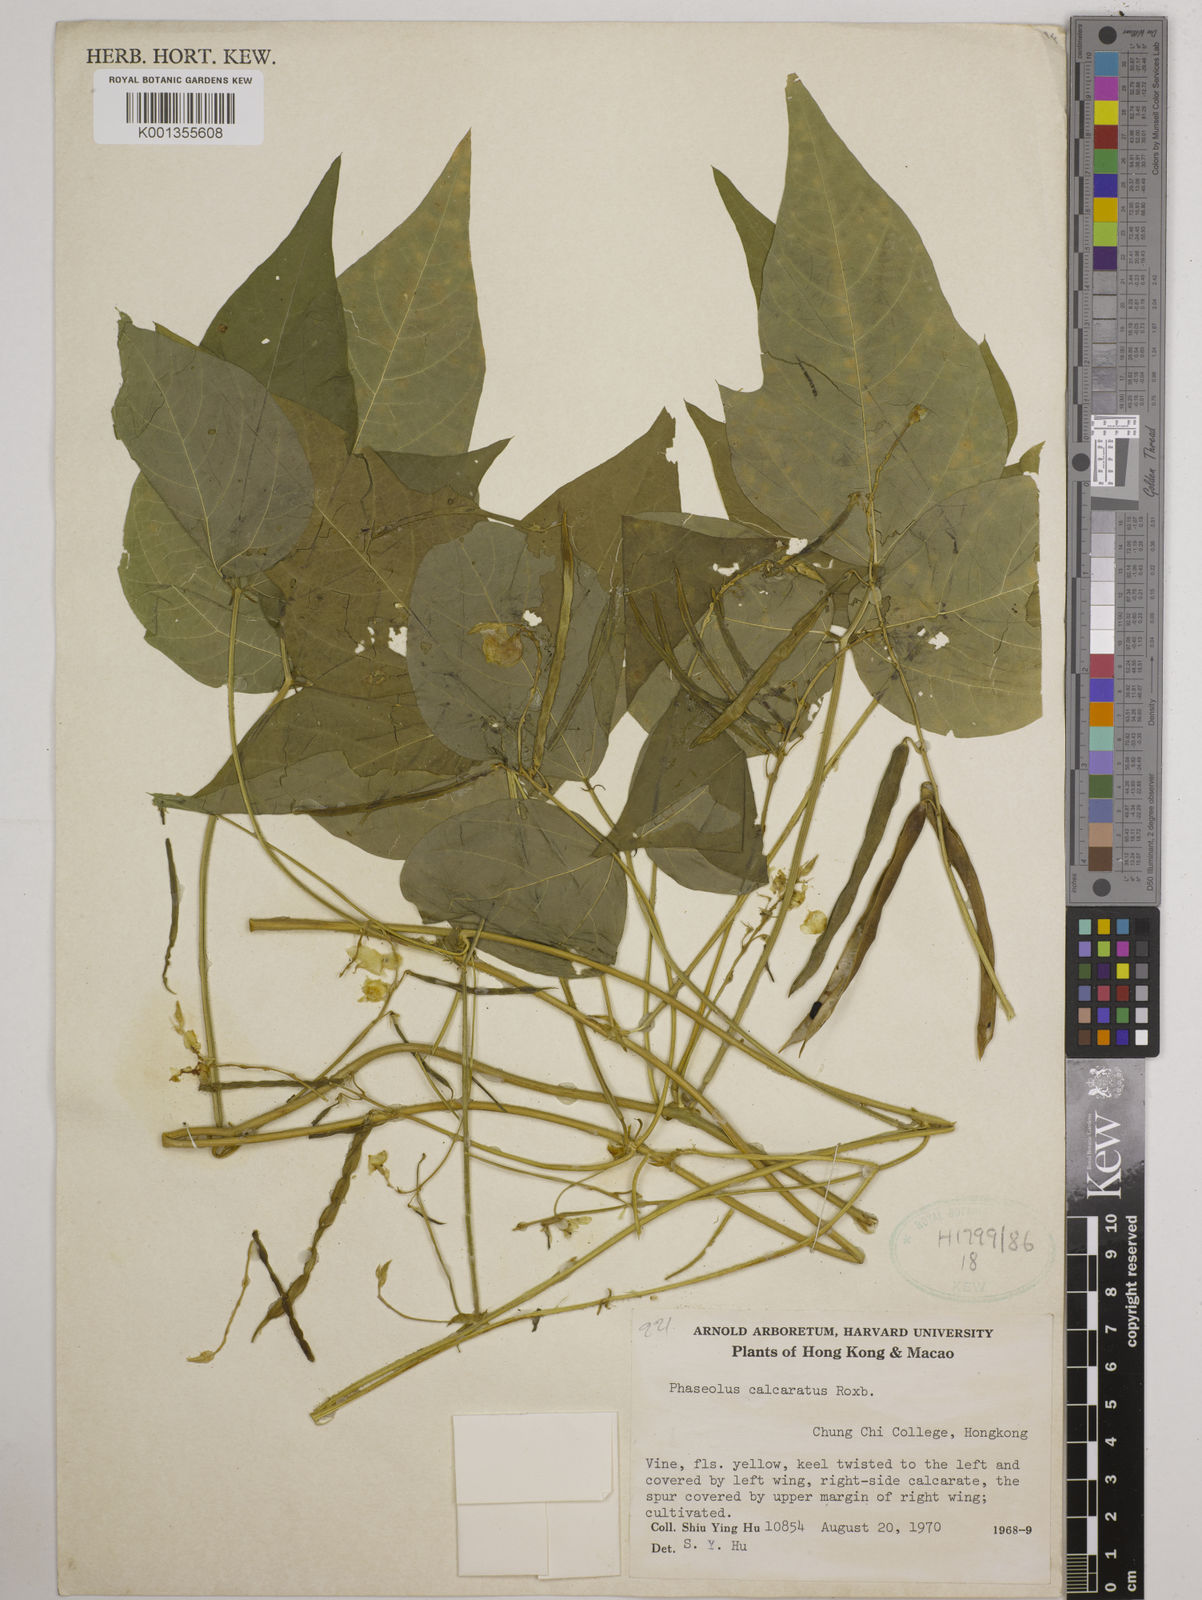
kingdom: Plantae
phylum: Tracheophyta
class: Magnoliopsida
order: Fabales
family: Fabaceae
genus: Vigna
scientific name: Vigna umbellata
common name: Oriental-bean
